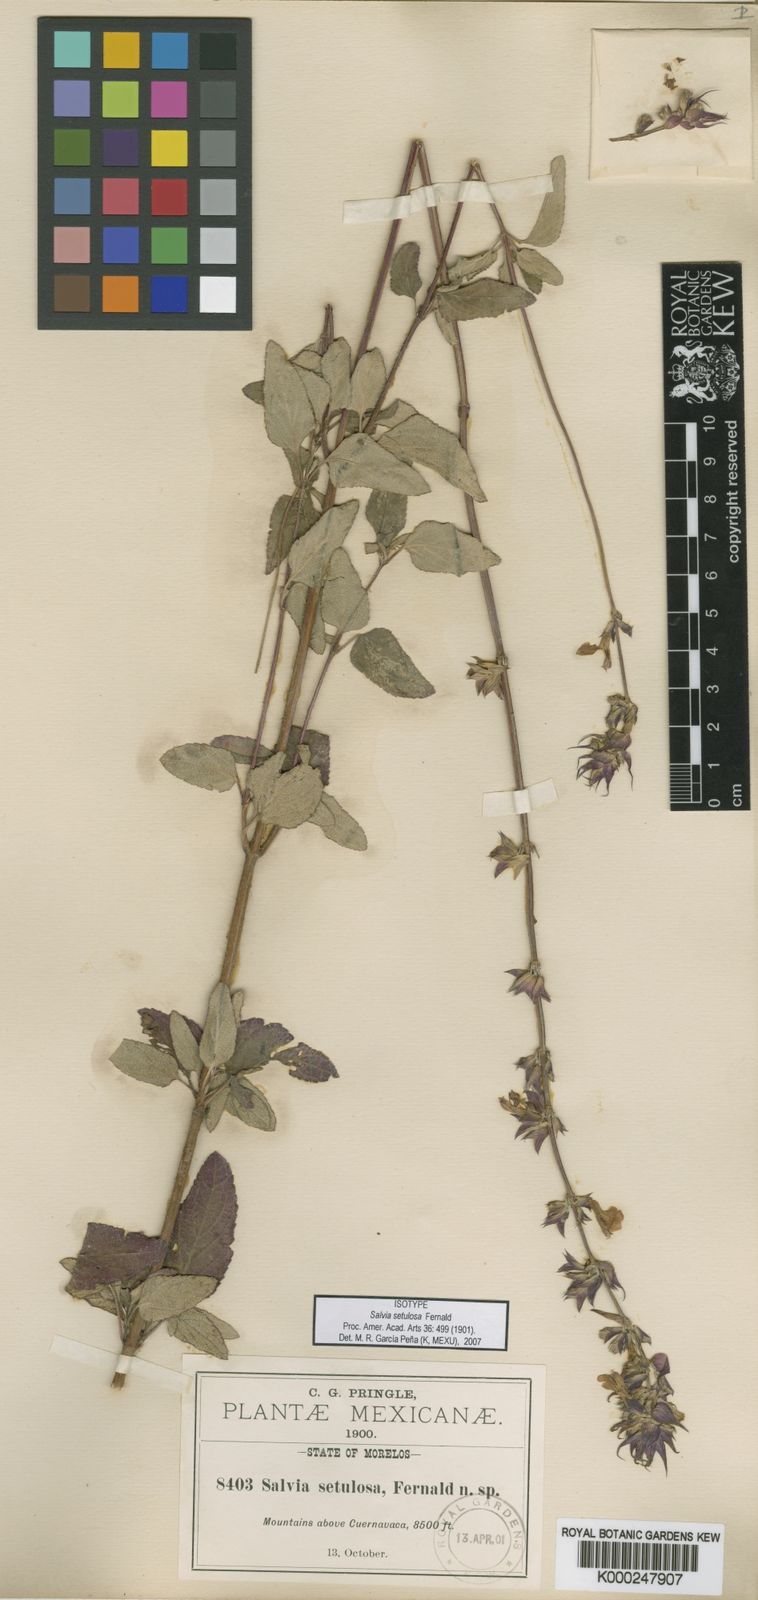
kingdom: Plantae
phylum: Tracheophyta
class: Magnoliopsida
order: Lamiales
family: Lamiaceae
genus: Salvia
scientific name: Salvia setulosa
